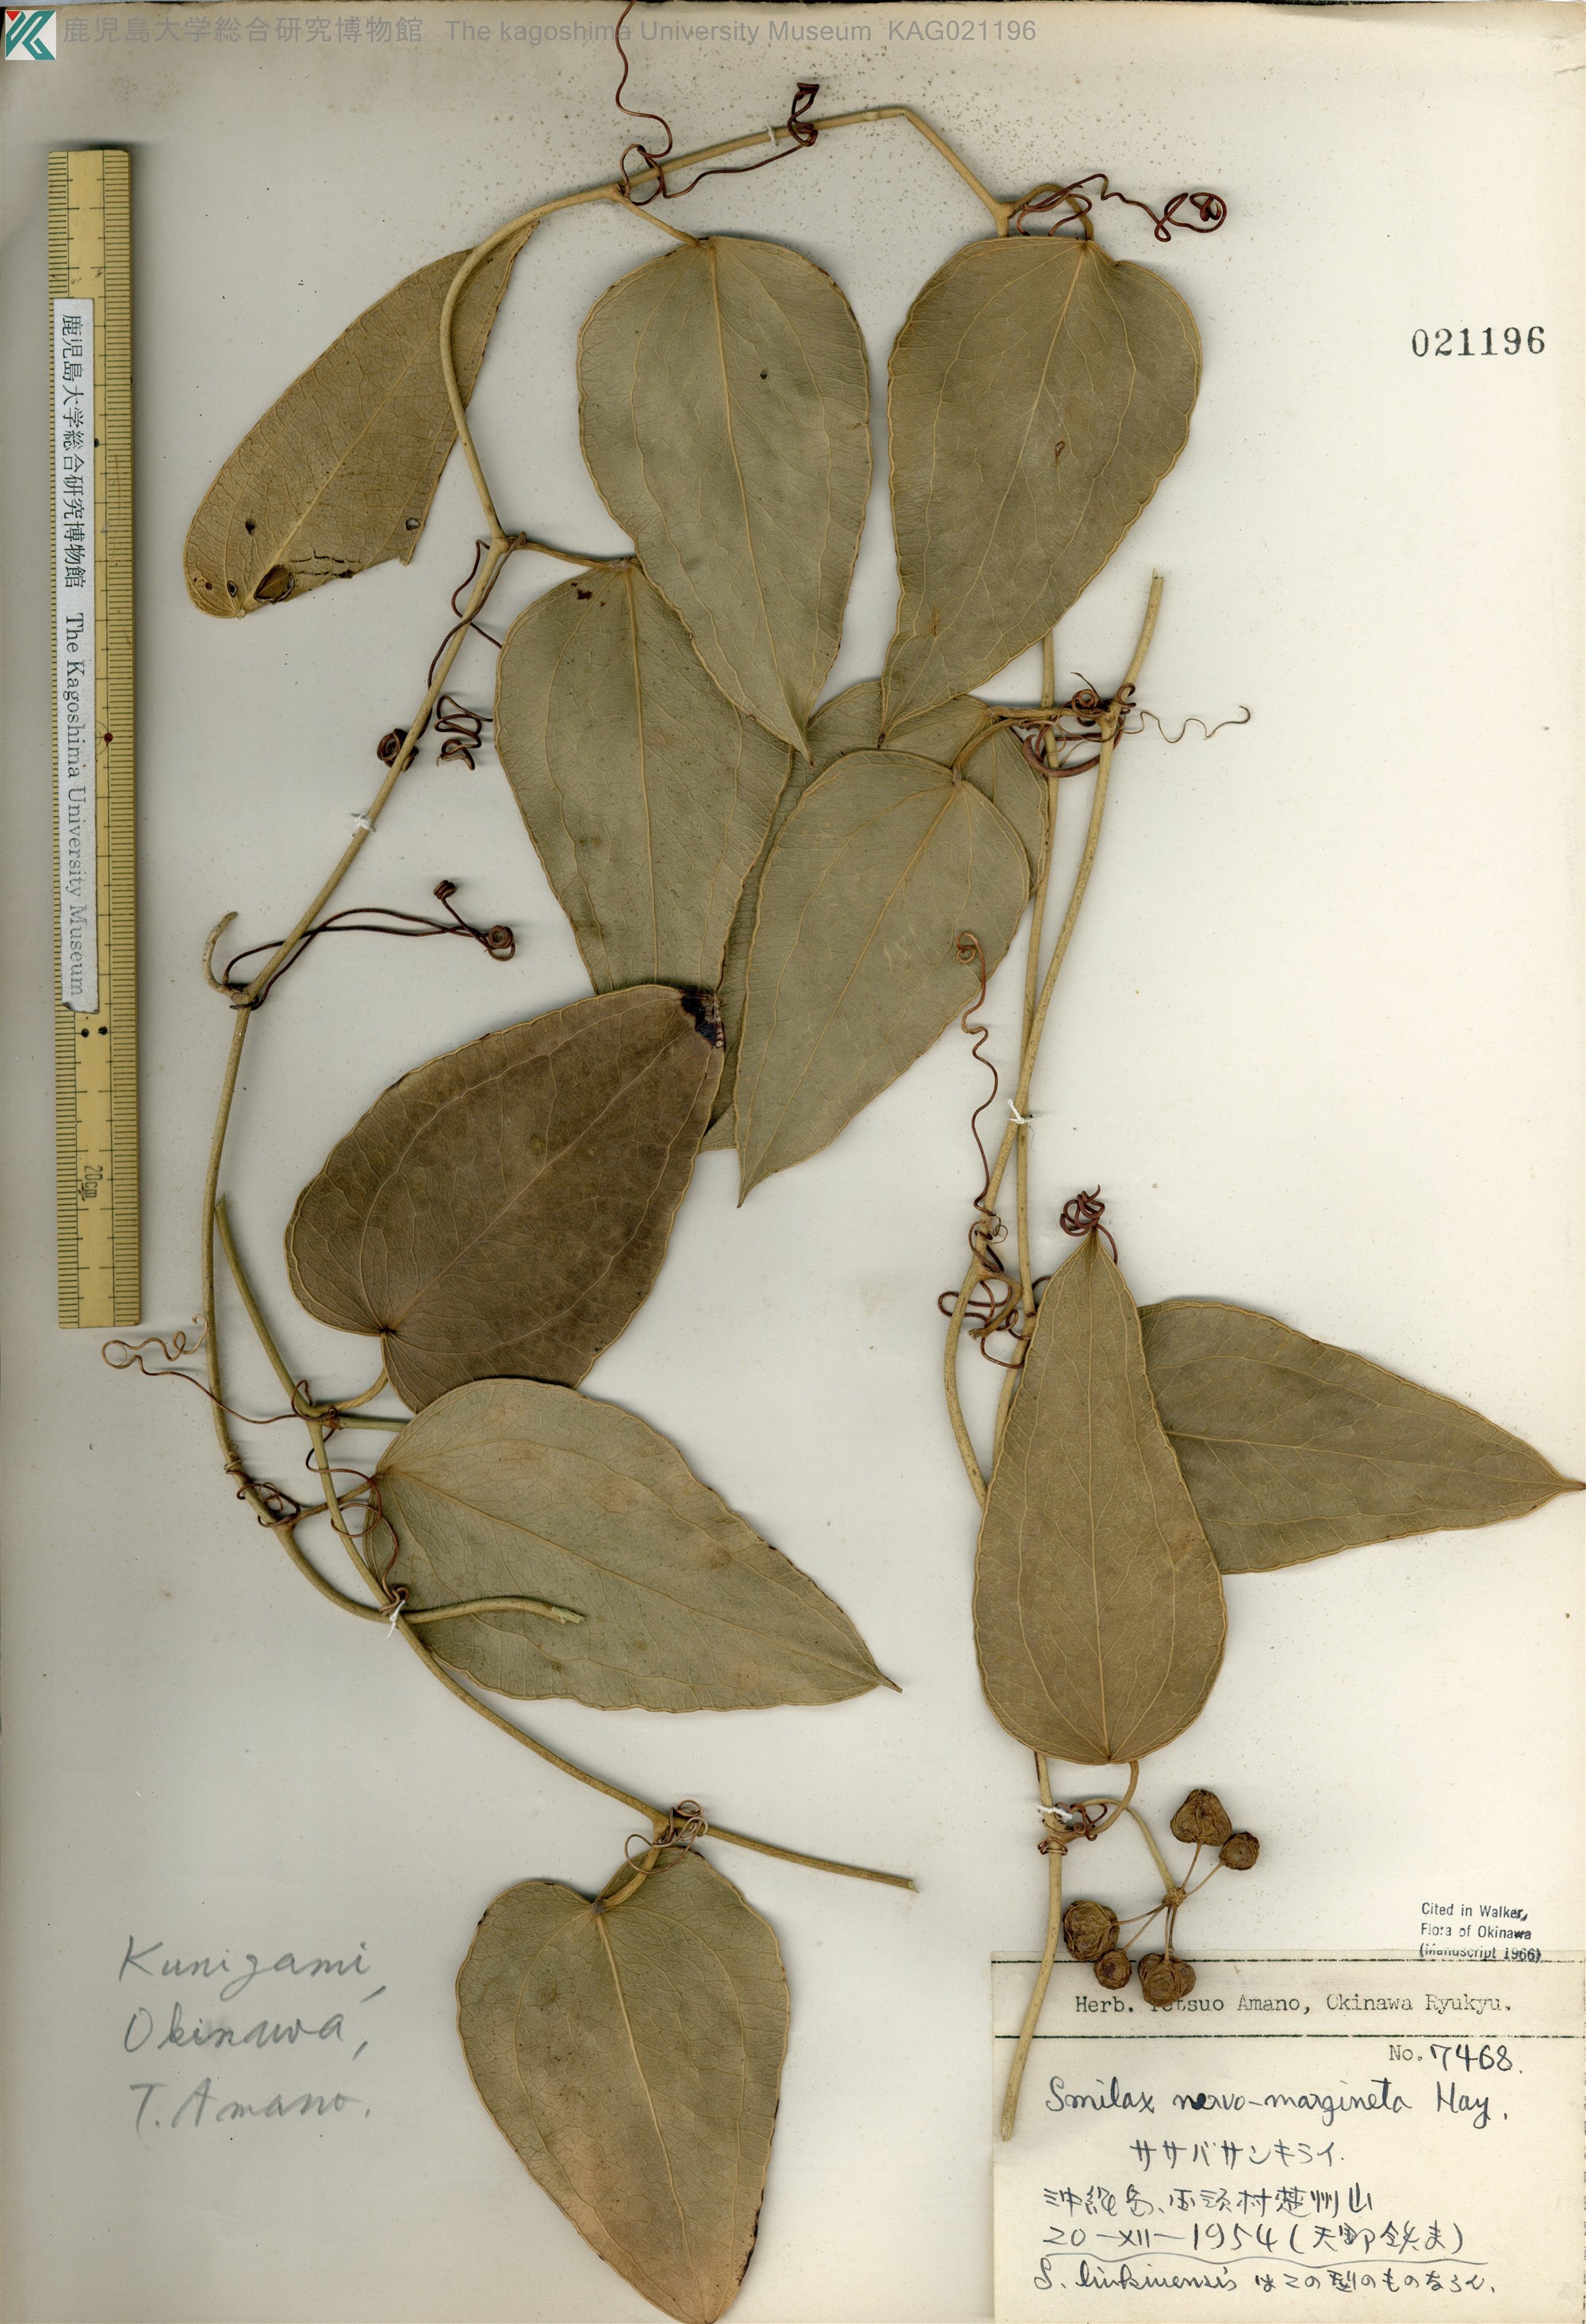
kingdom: Plantae
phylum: Tracheophyta
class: Liliopsida
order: Liliales
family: Smilacaceae
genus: Smilax
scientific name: Smilax nervomarginata
